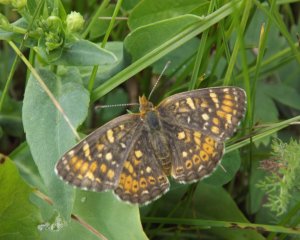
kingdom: Animalia
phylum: Arthropoda
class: Insecta
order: Lepidoptera
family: Nymphalidae
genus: Phyciodes
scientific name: Phyciodes tharos
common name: Field Crescent
